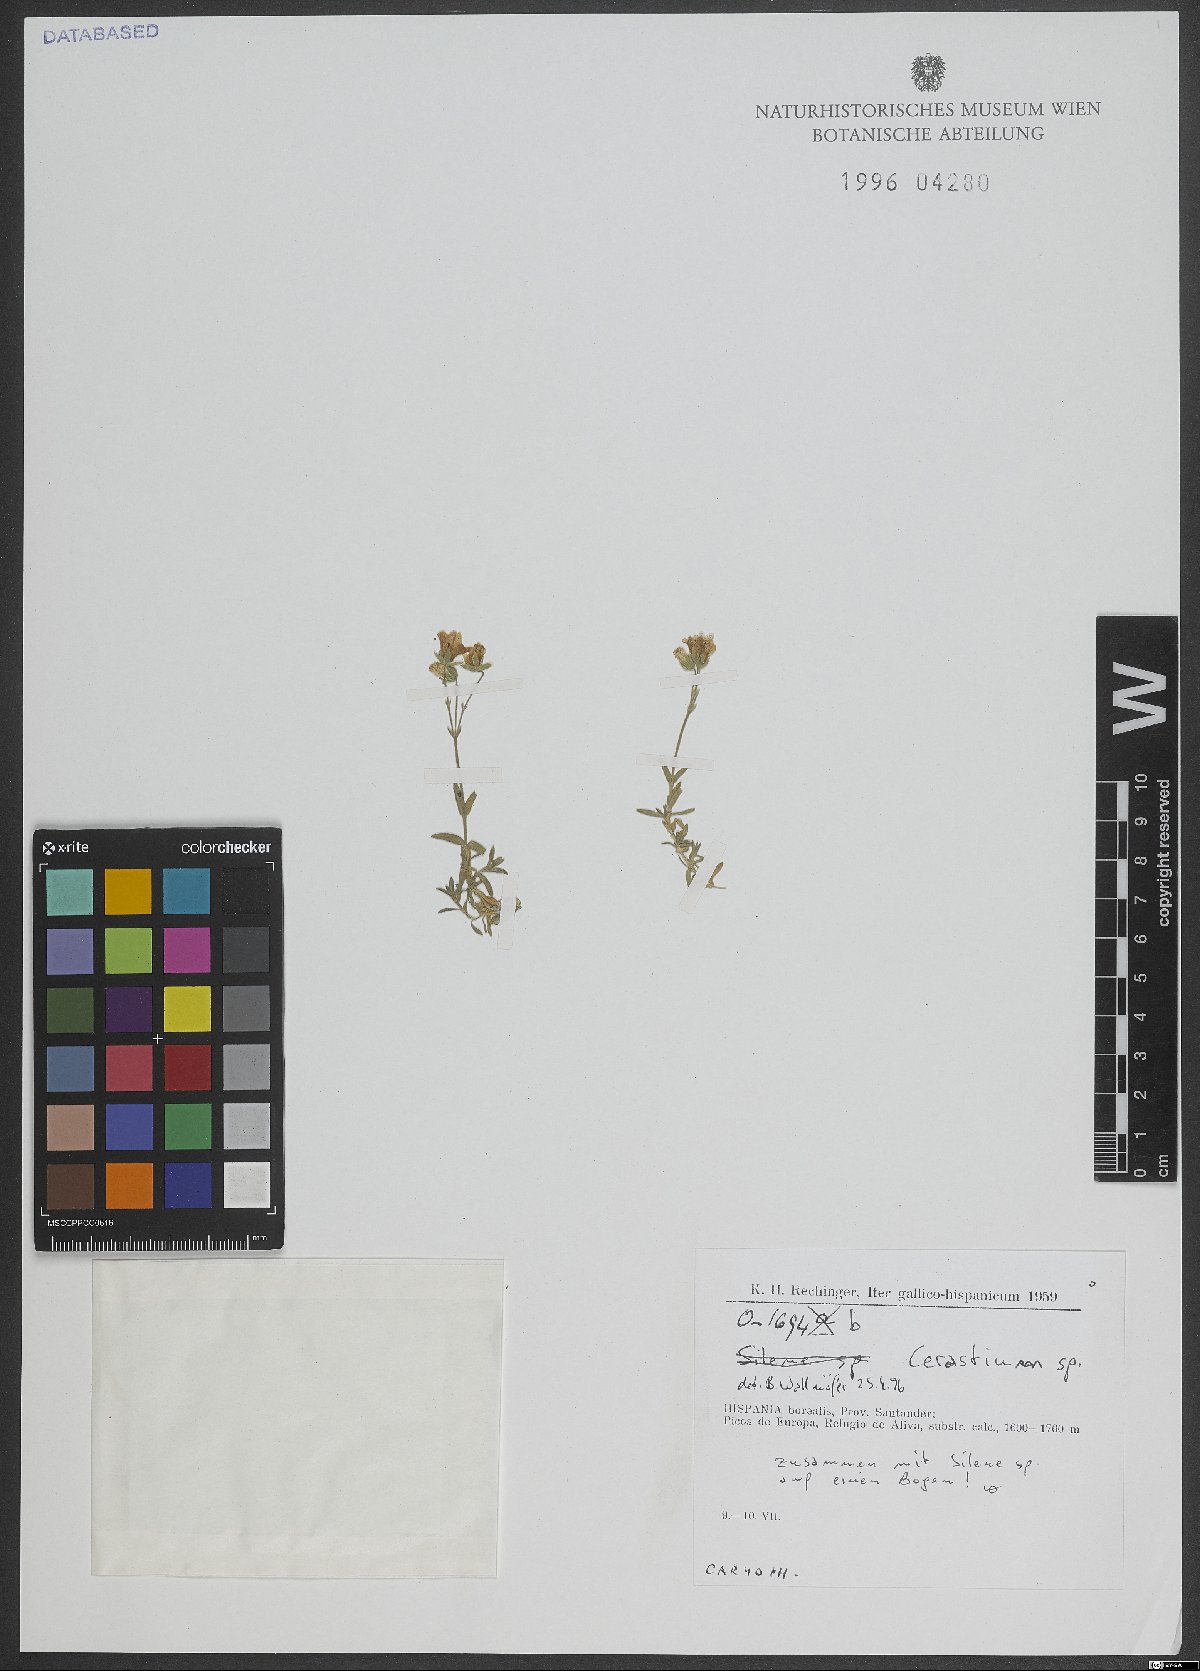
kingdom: Plantae
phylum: Tracheophyta
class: Magnoliopsida
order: Caryophyllales
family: Caryophyllaceae
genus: Cerastium
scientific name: Cerastium
